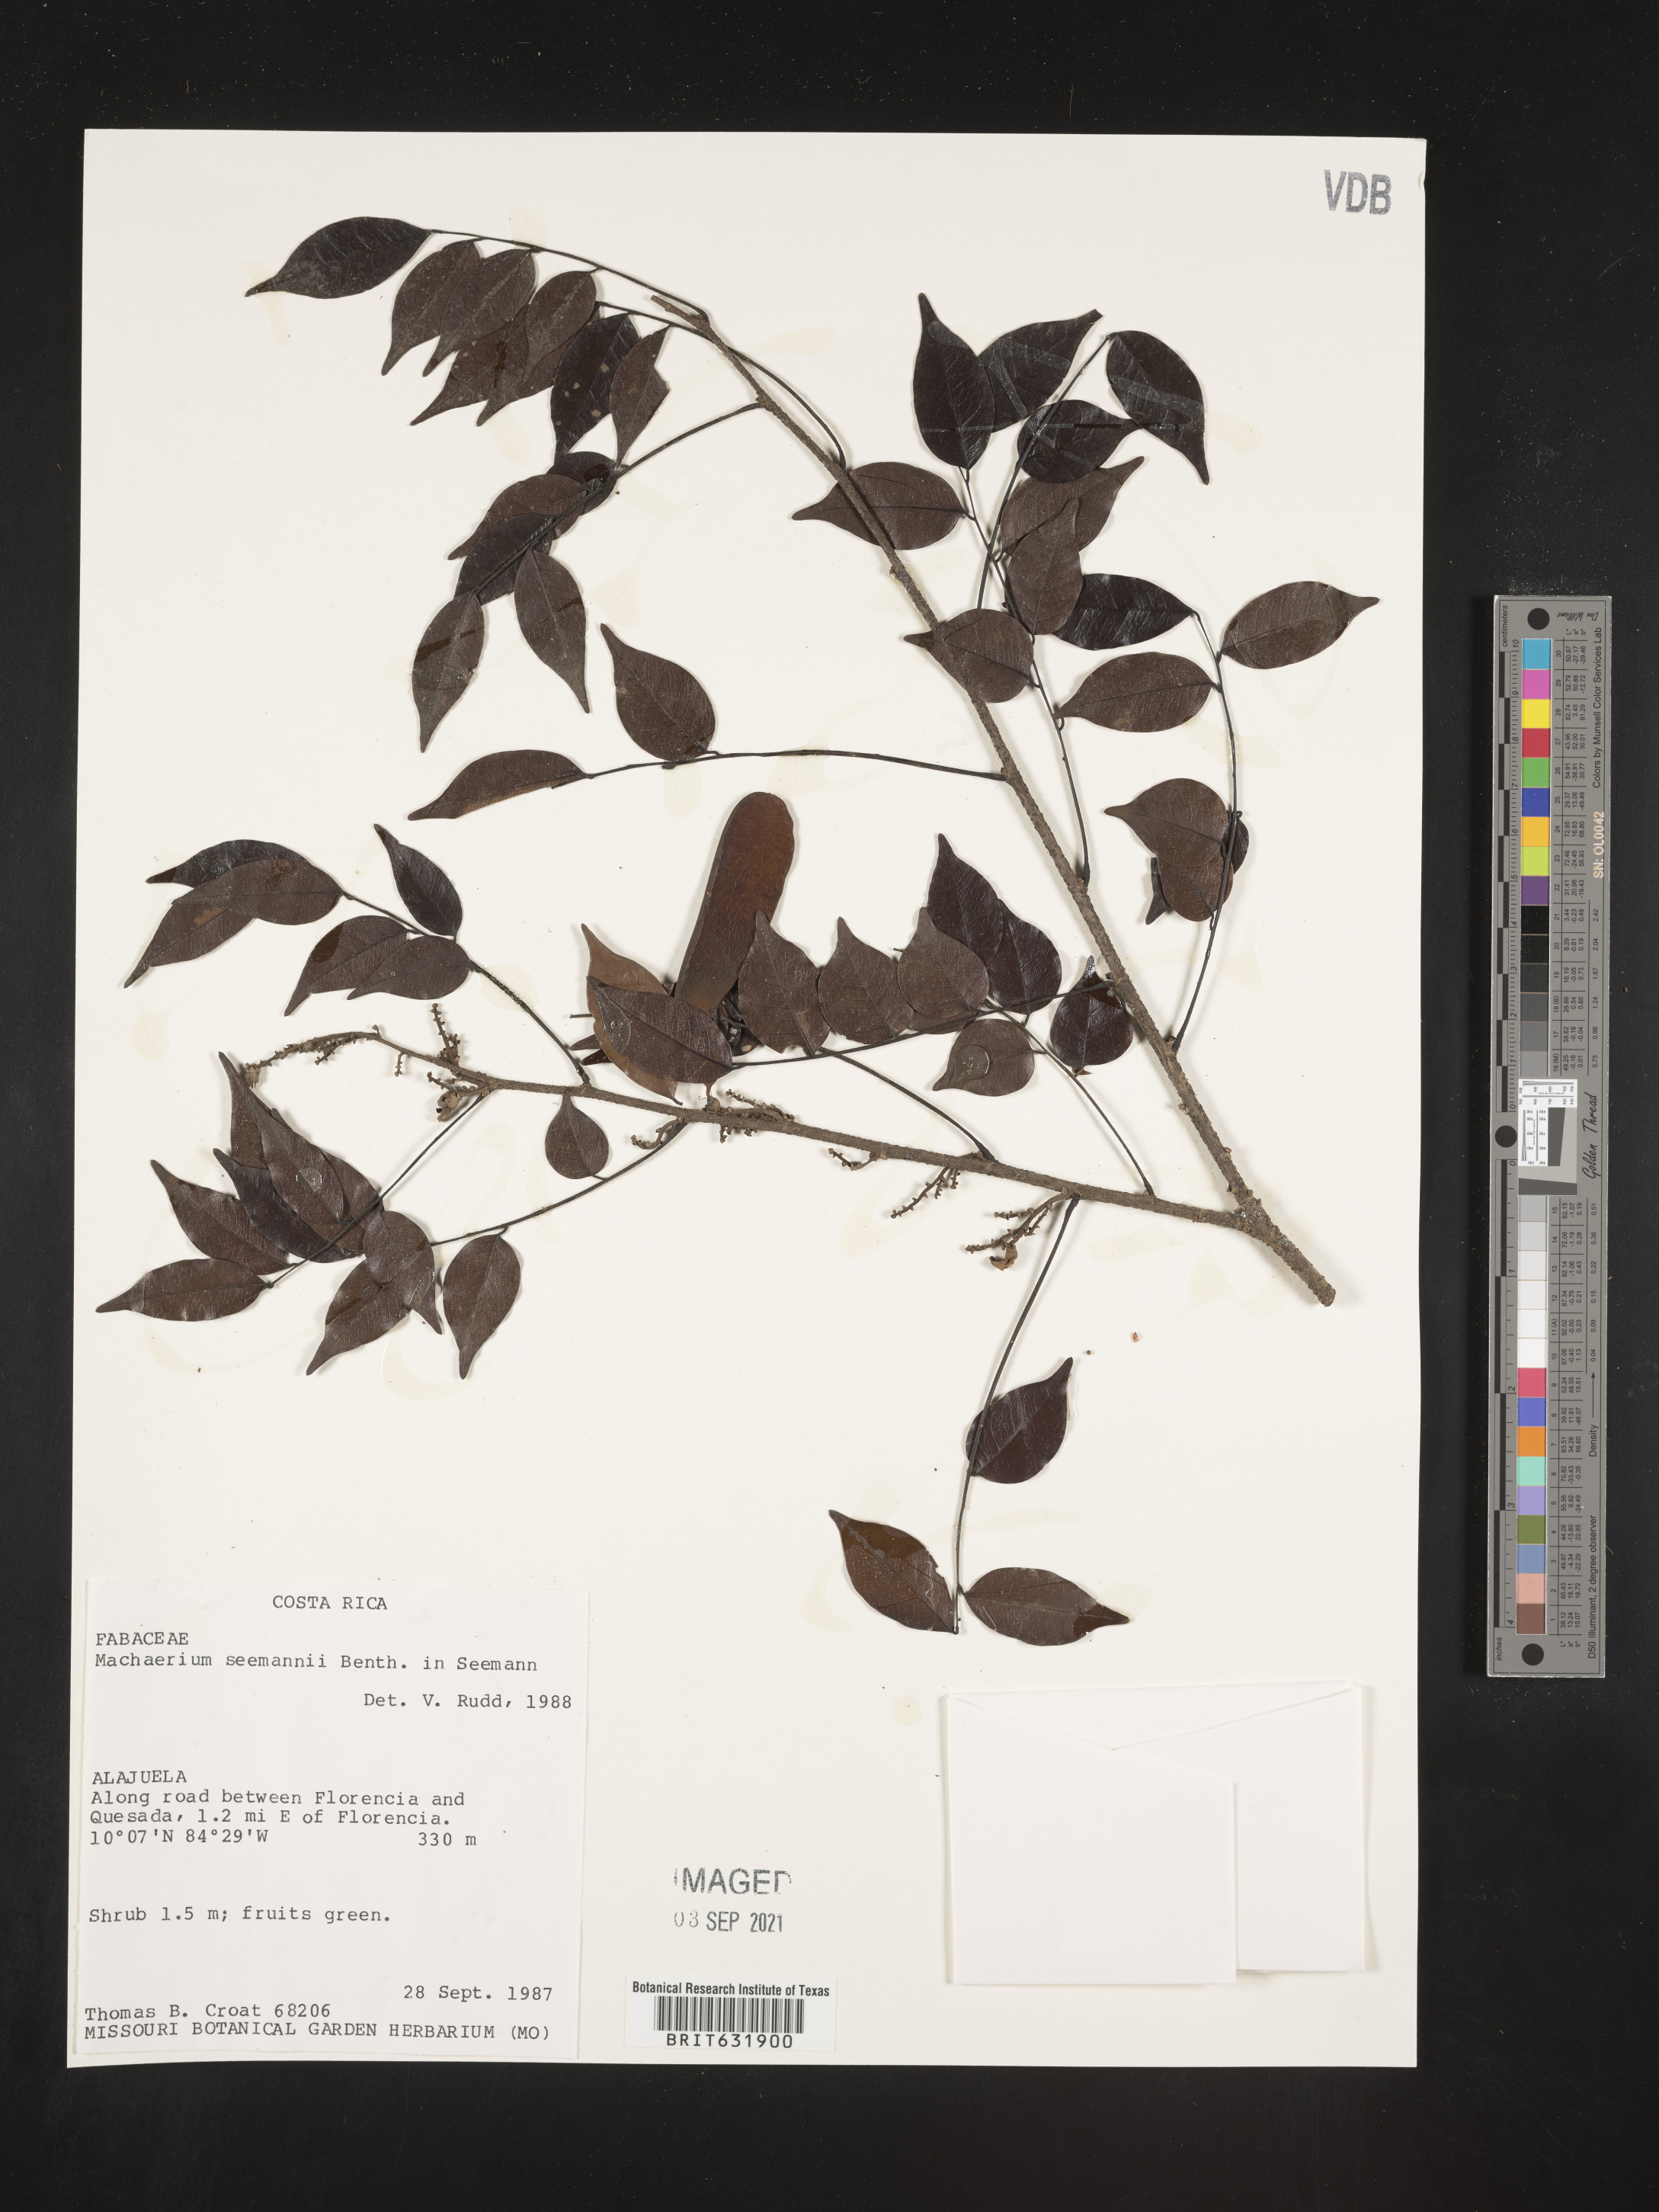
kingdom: Plantae
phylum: Tracheophyta
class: Magnoliopsida
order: Fabales
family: Fabaceae
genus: Machaerium
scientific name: Machaerium
